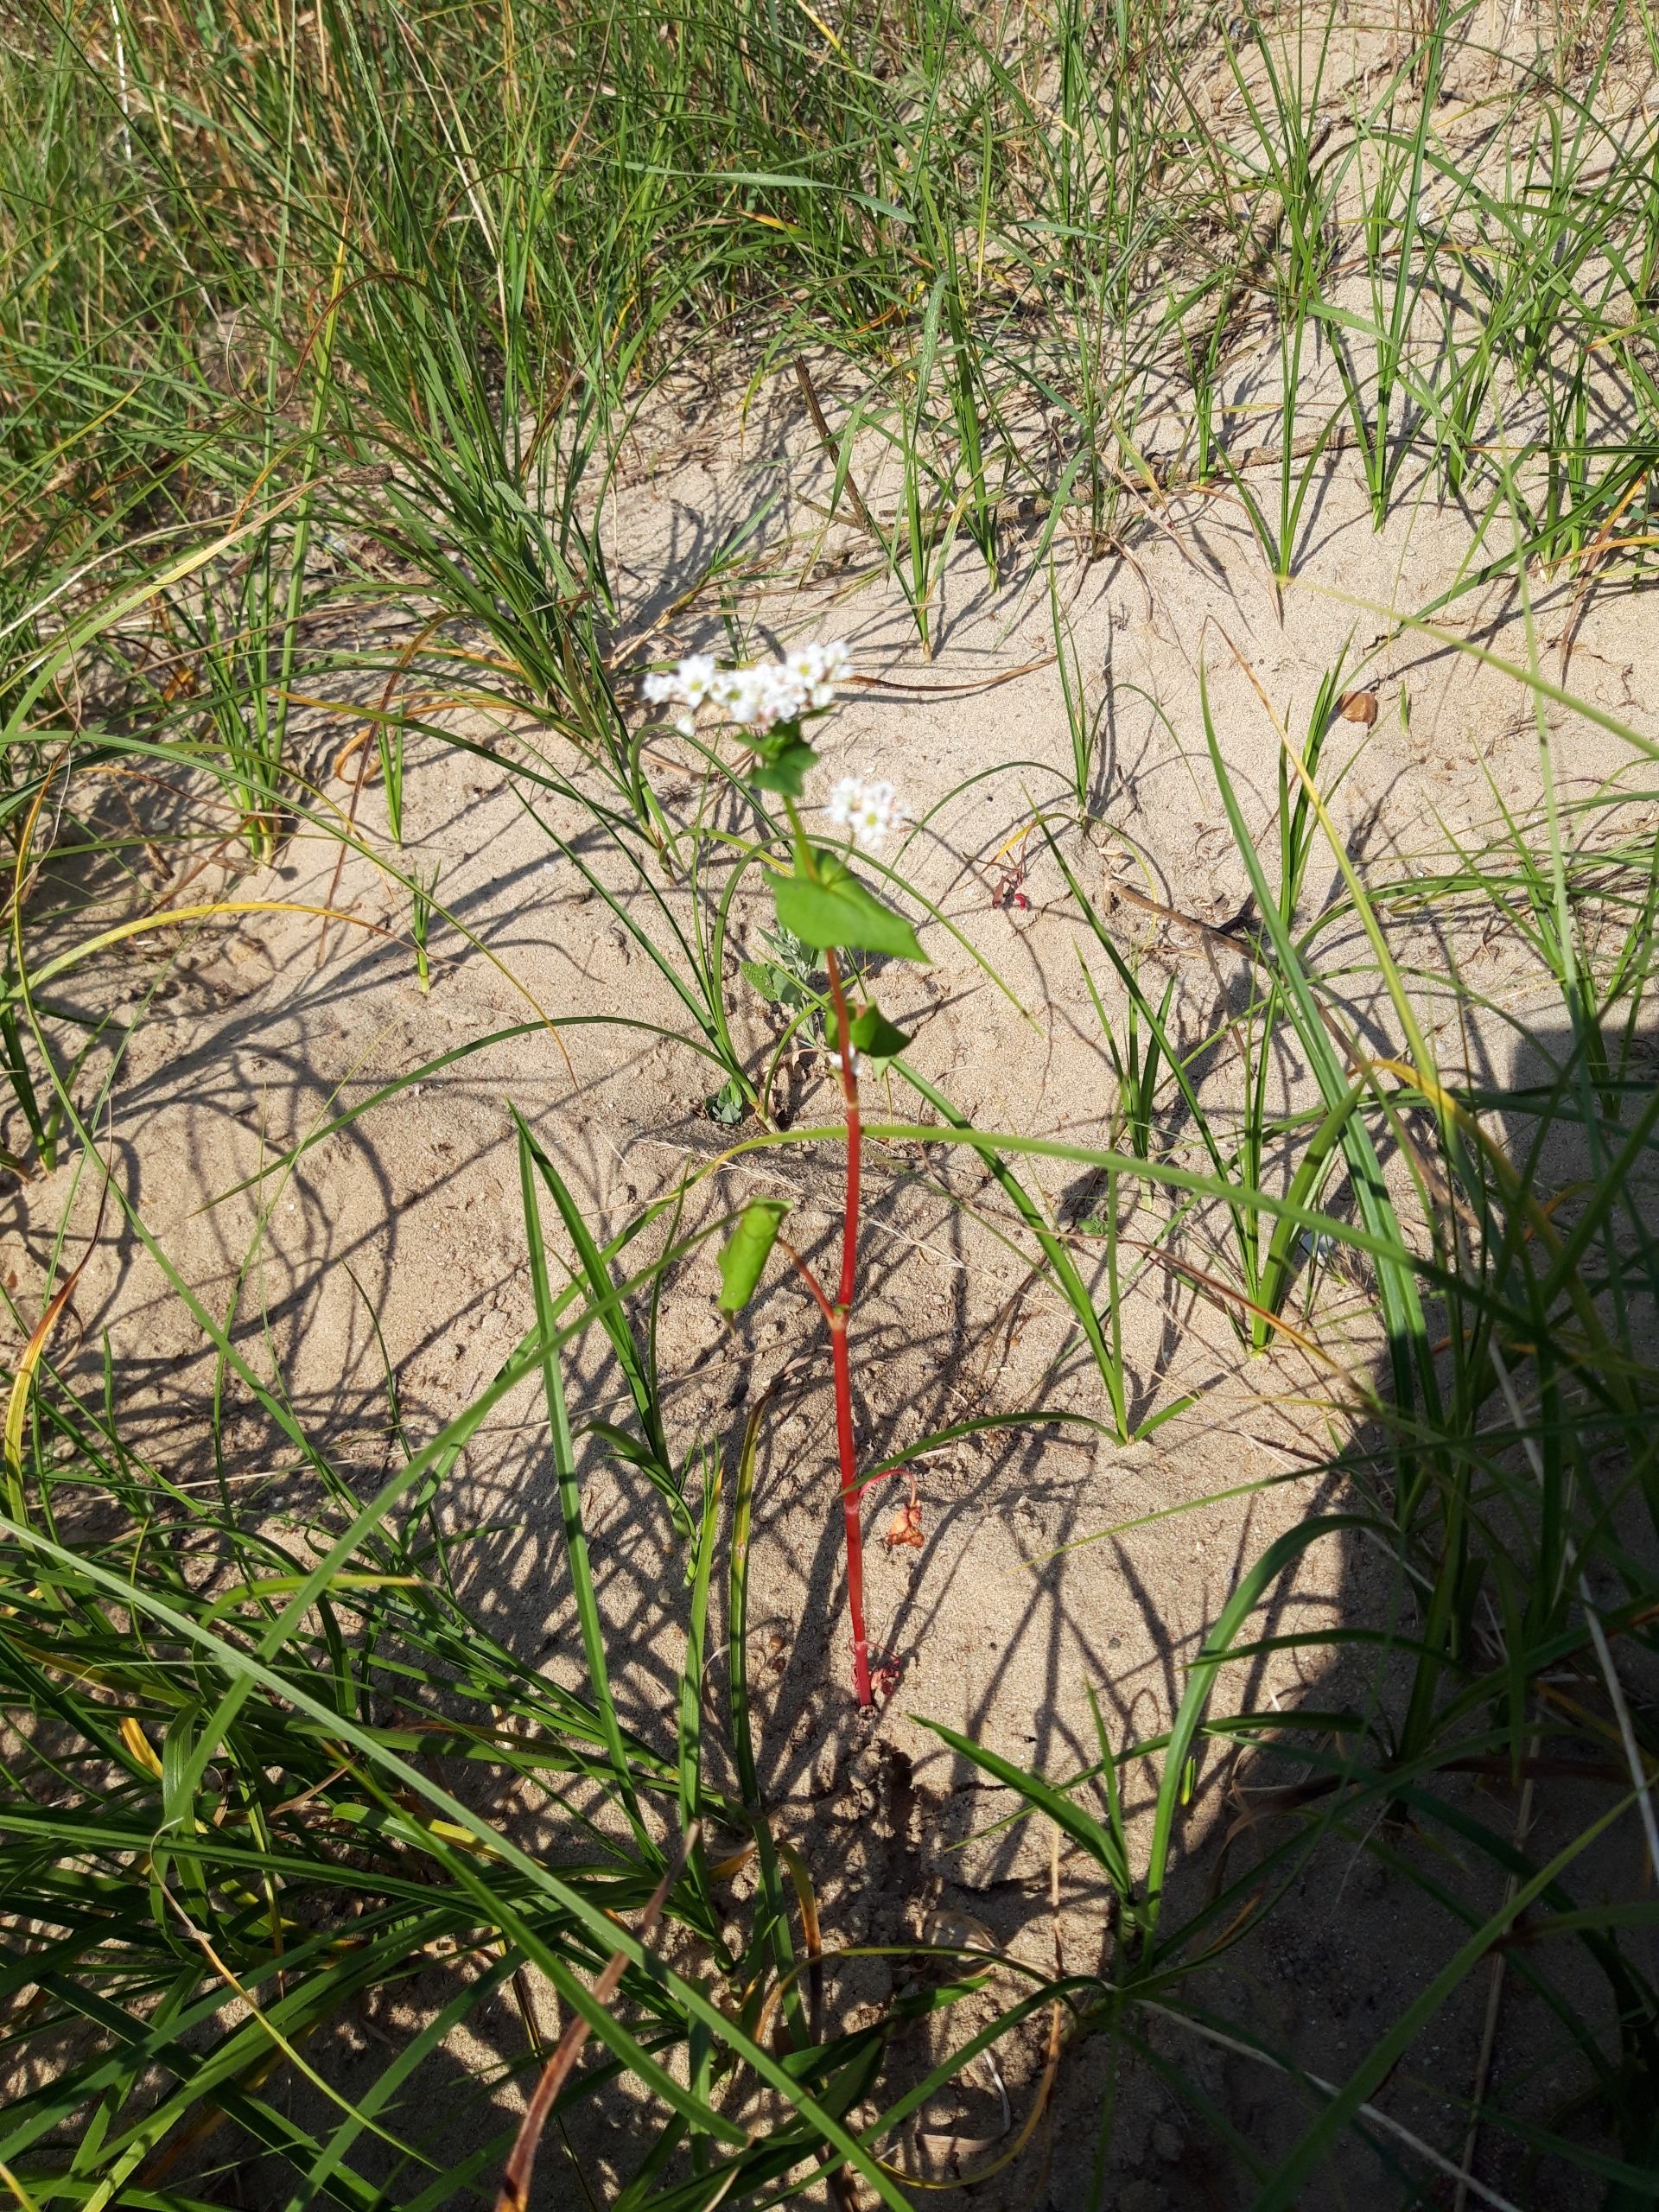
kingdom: Plantae
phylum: Tracheophyta
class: Magnoliopsida
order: Caryophyllales
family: Polygonaceae
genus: Fagopyrum
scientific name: Fagopyrum esculentum
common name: Almindelig boghvede
